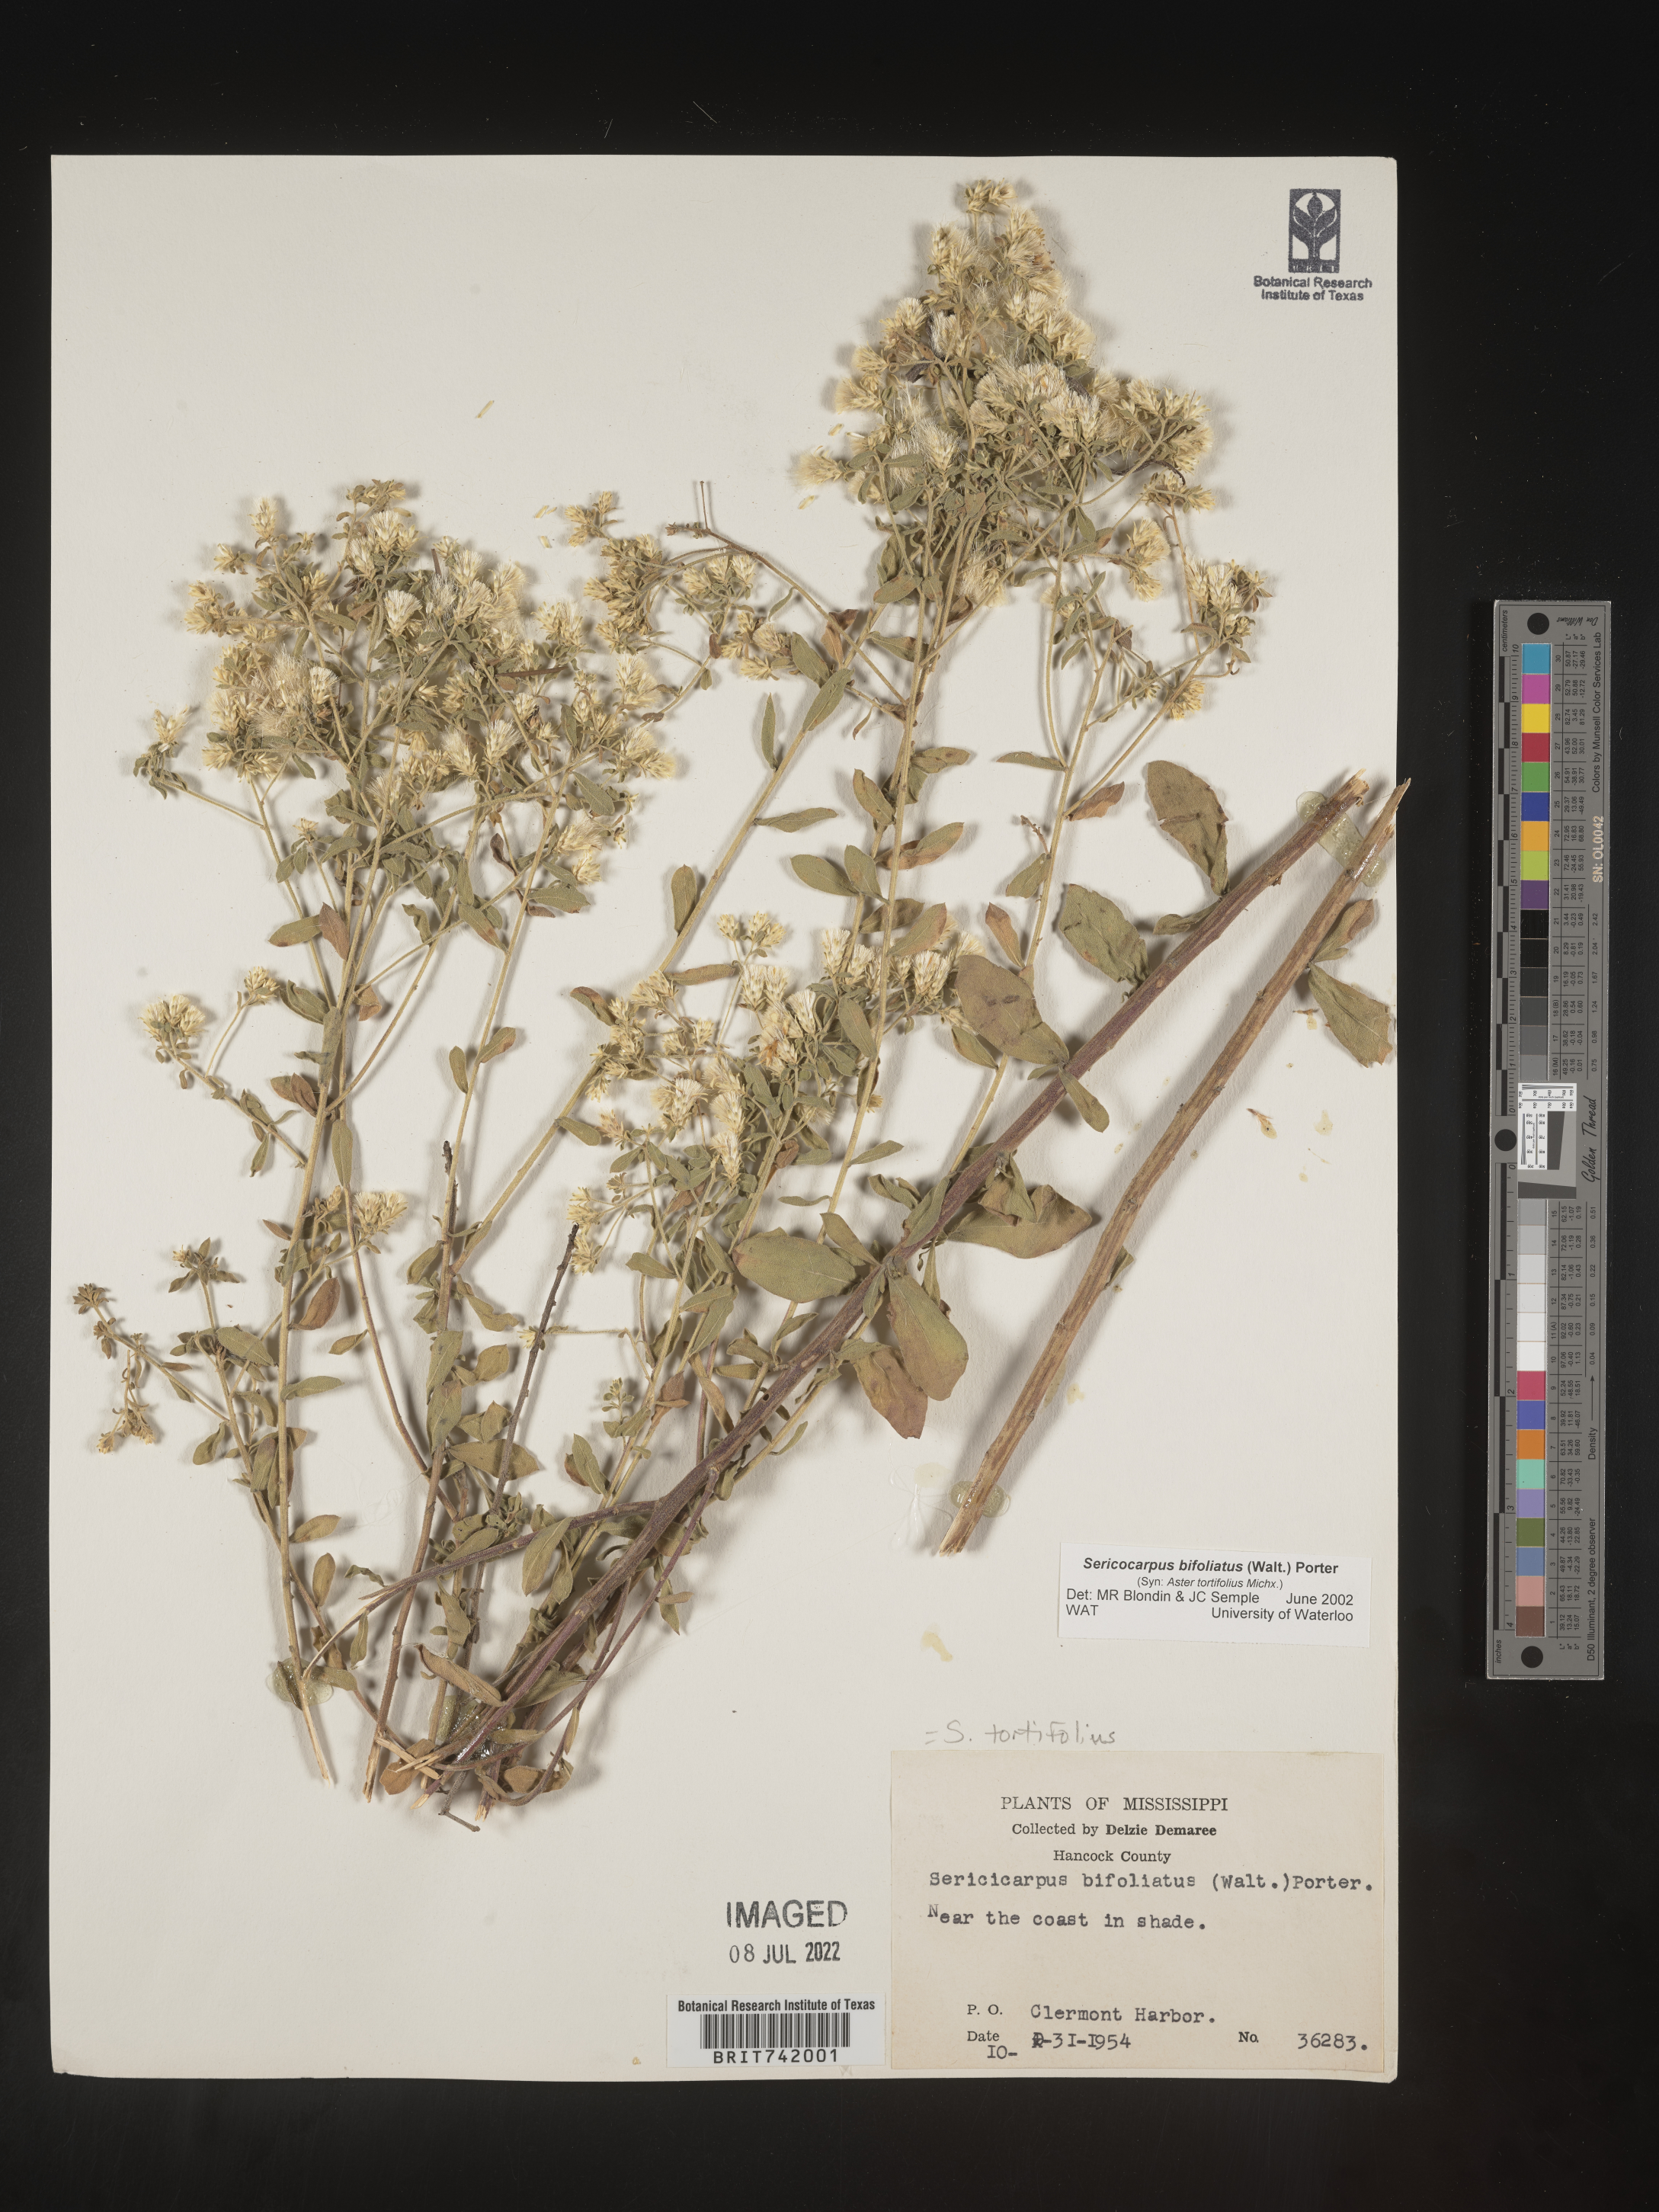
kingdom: Plantae
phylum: Tracheophyta
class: Magnoliopsida
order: Asterales
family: Asteraceae
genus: Sericocarpus
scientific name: Sericocarpus tortifolius
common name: Dixie aster
